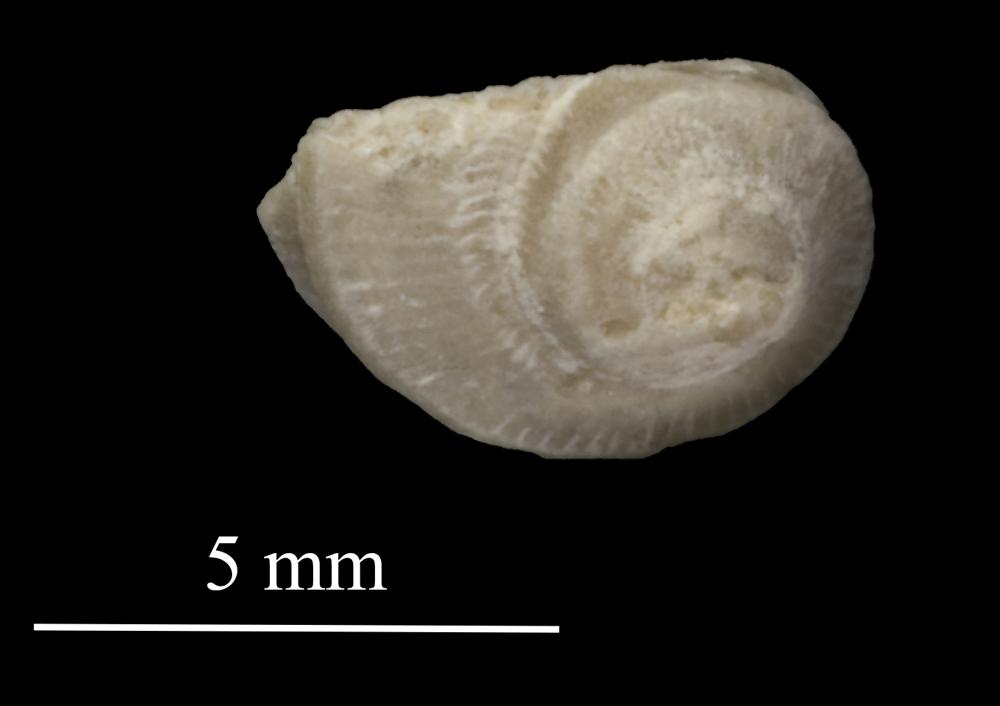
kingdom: Animalia
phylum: Mollusca
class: Gastropoda
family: Trochonematidae
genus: Trochonema
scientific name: Trochonema panderi
